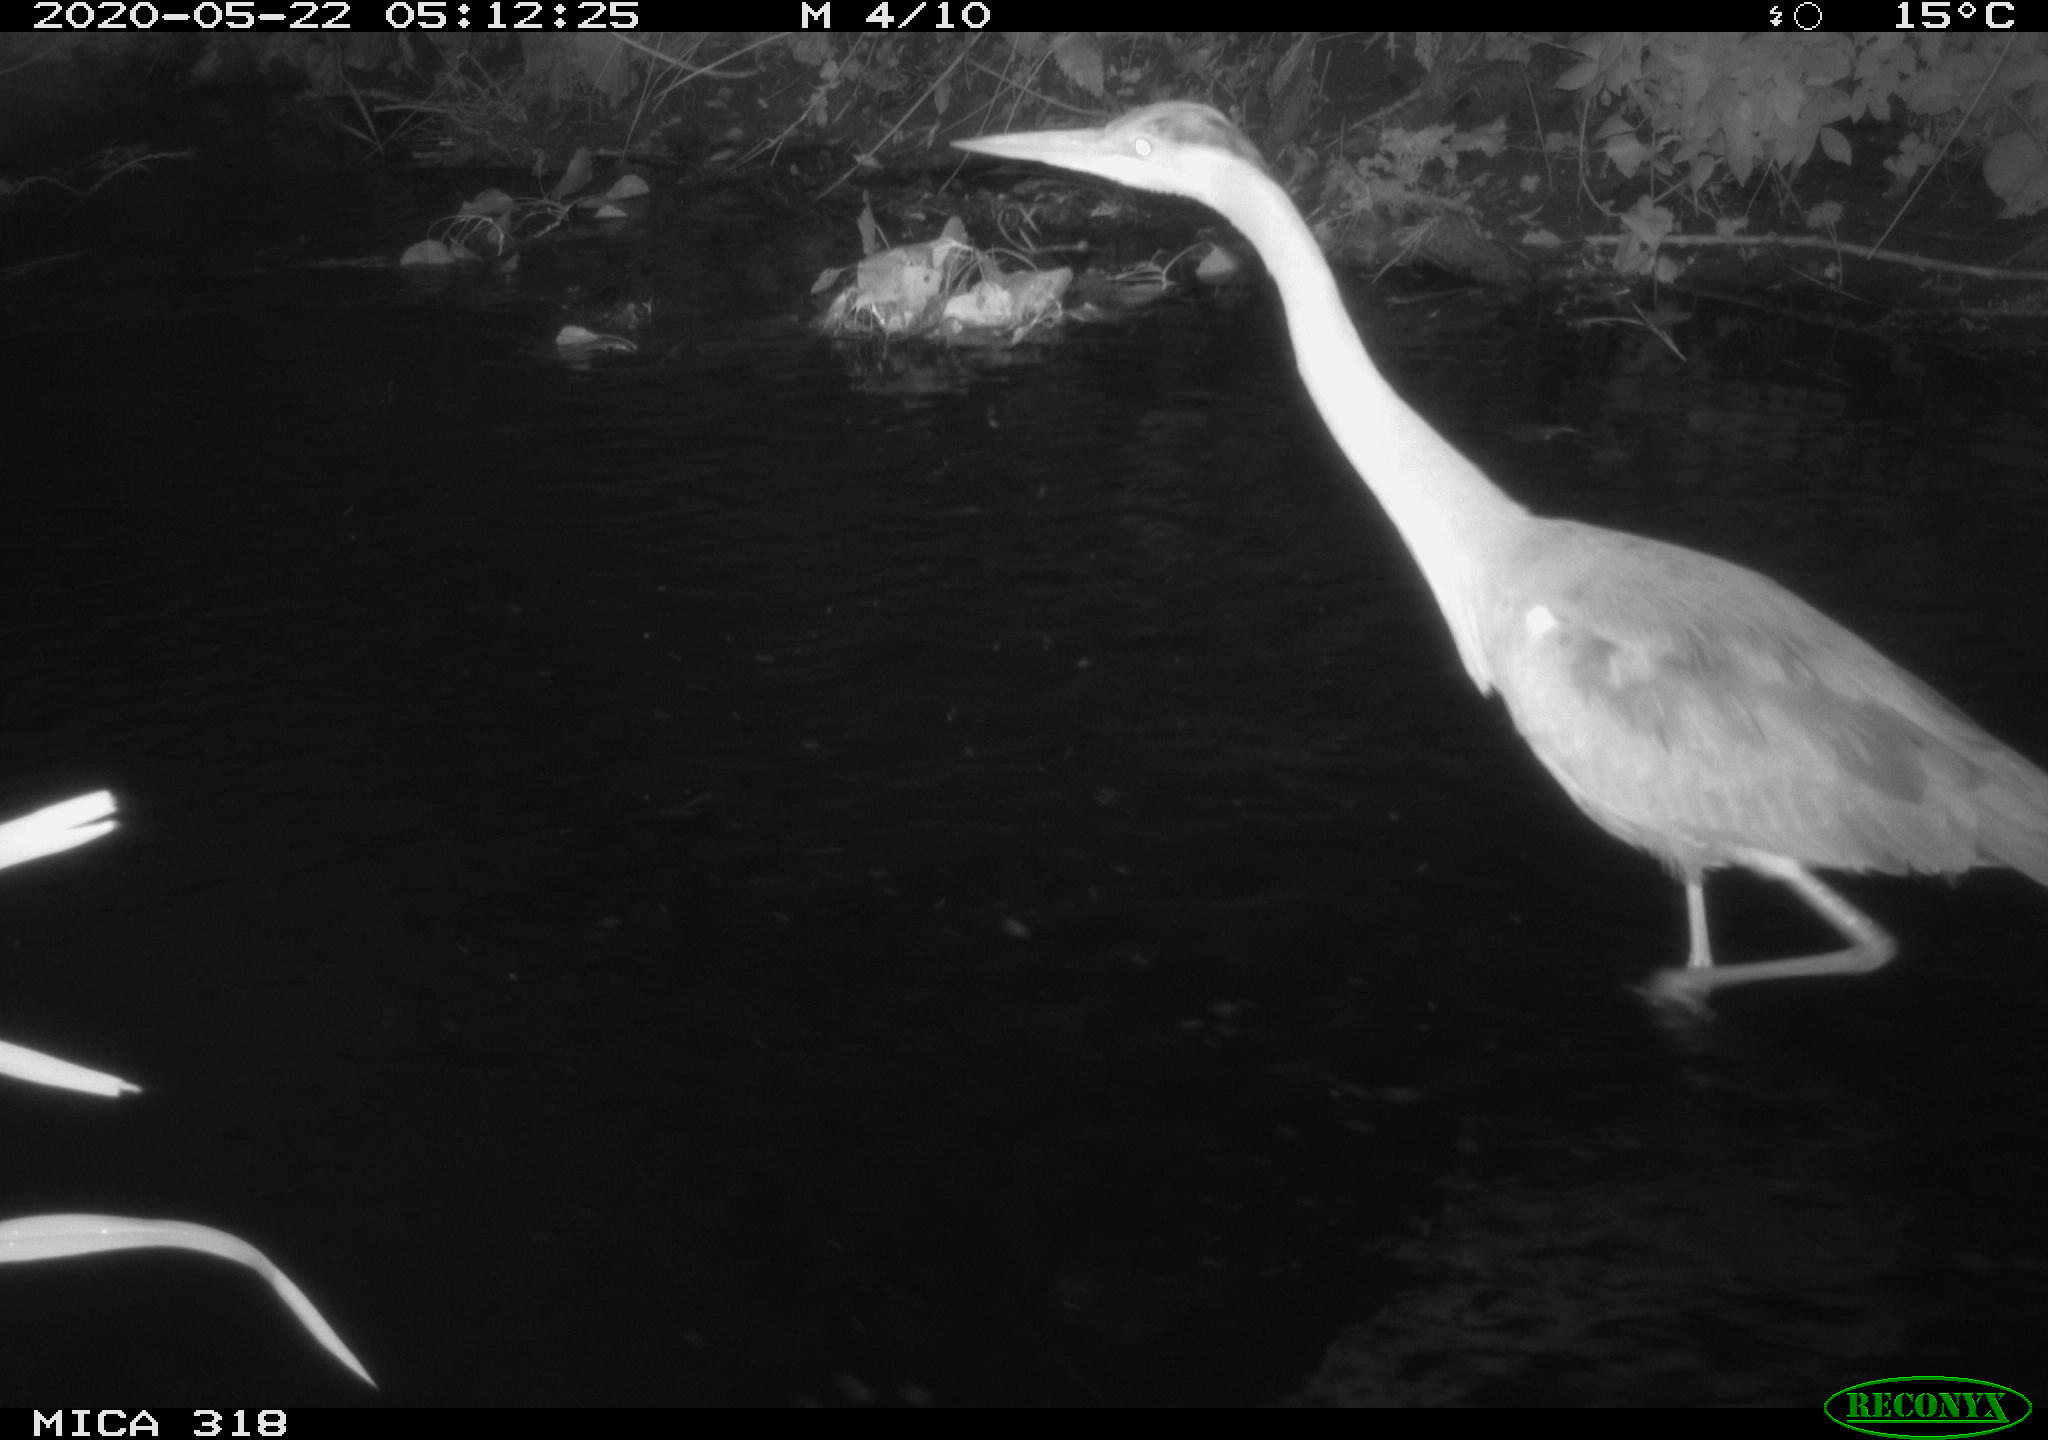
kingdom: Animalia
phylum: Chordata
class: Aves
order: Pelecaniformes
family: Ardeidae
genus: Ardea
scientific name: Ardea cinerea
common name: Grey heron
